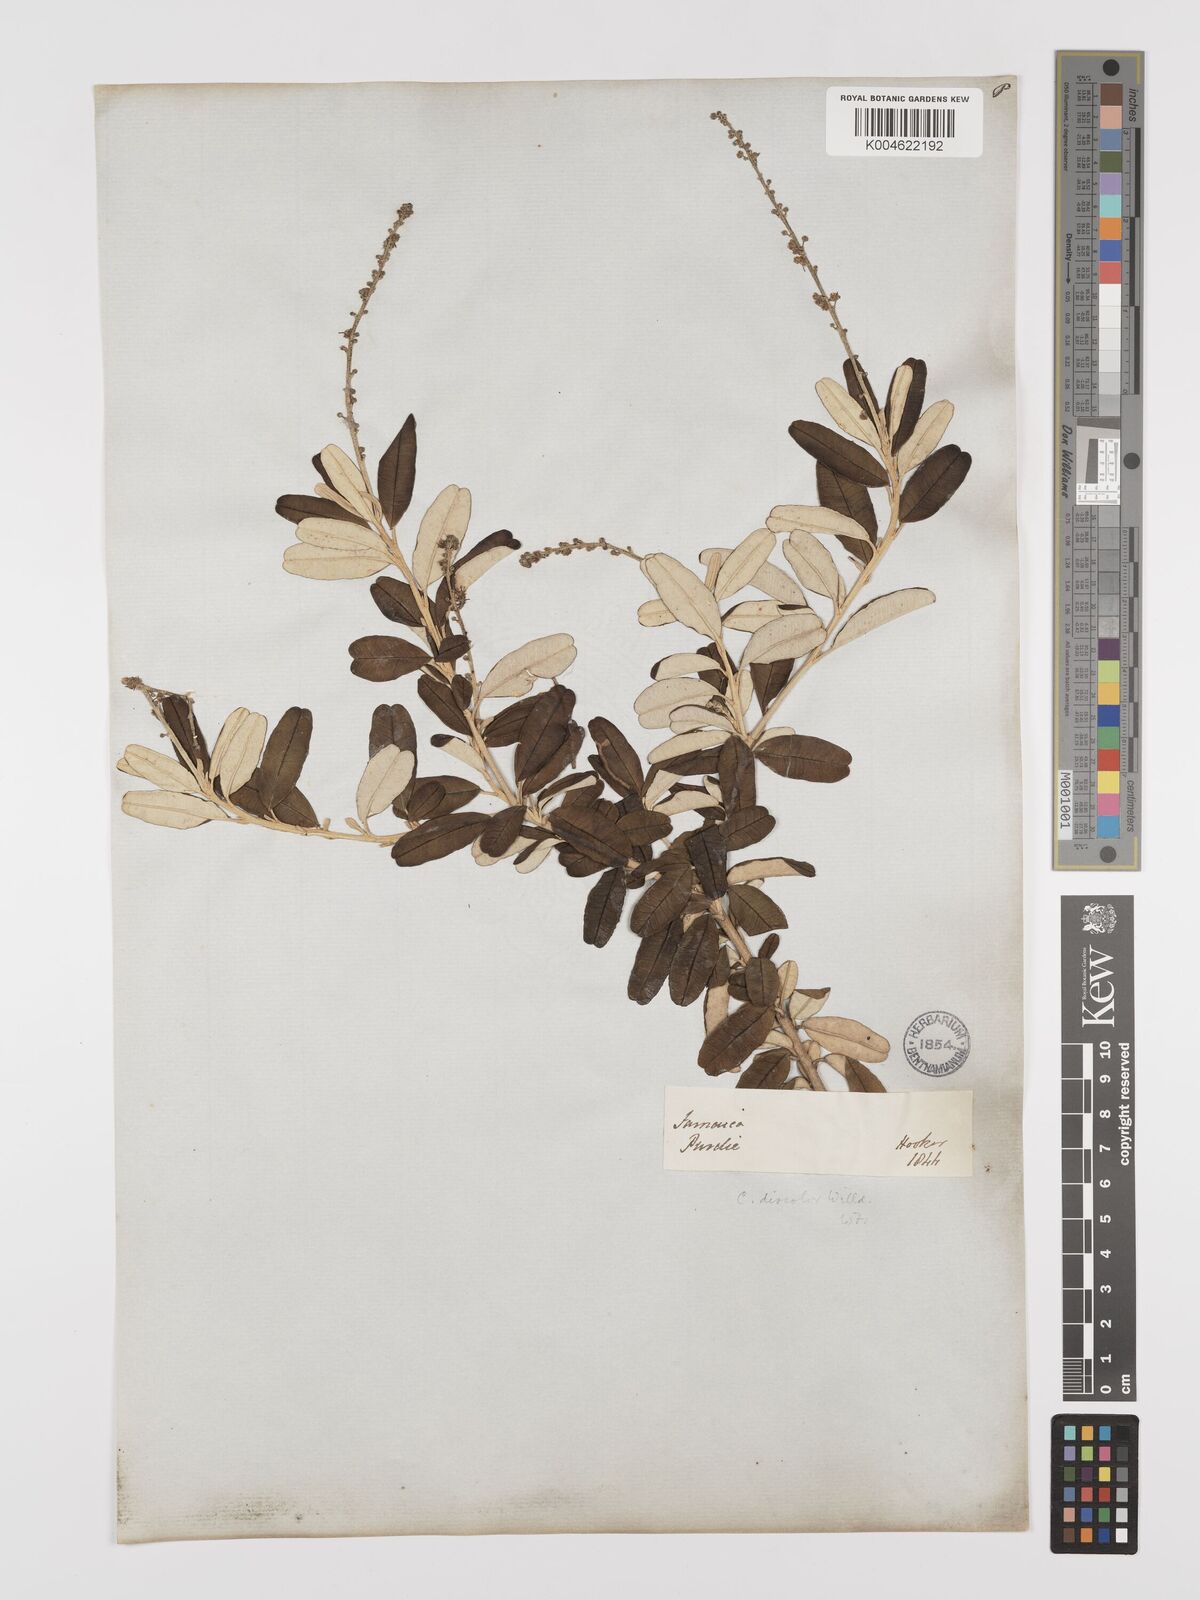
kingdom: Plantae
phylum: Tracheophyta
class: Magnoliopsida
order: Malpighiales
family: Euphorbiaceae
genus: Croton
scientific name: Croton
